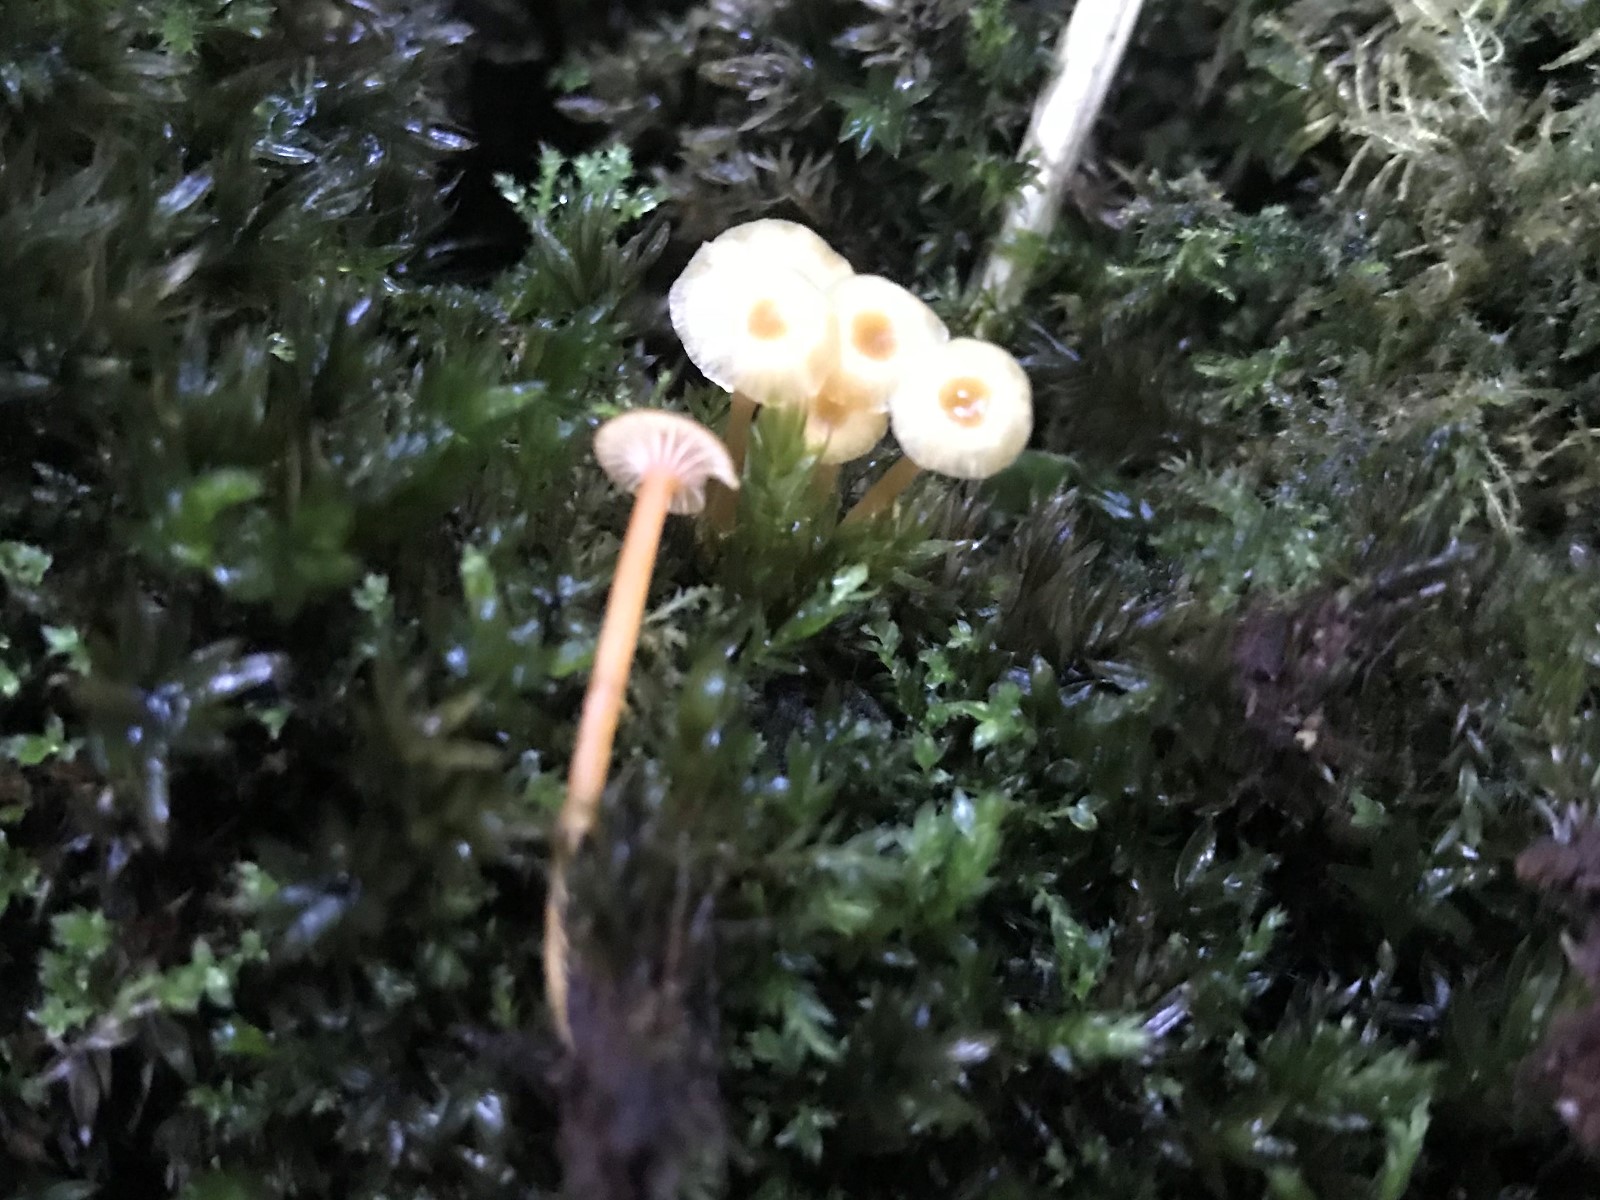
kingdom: Fungi
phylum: Basidiomycota
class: Agaricomycetes
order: Hymenochaetales
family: Rickenellaceae
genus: Rickenella
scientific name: Rickenella fibula
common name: orange mosnavlehat
